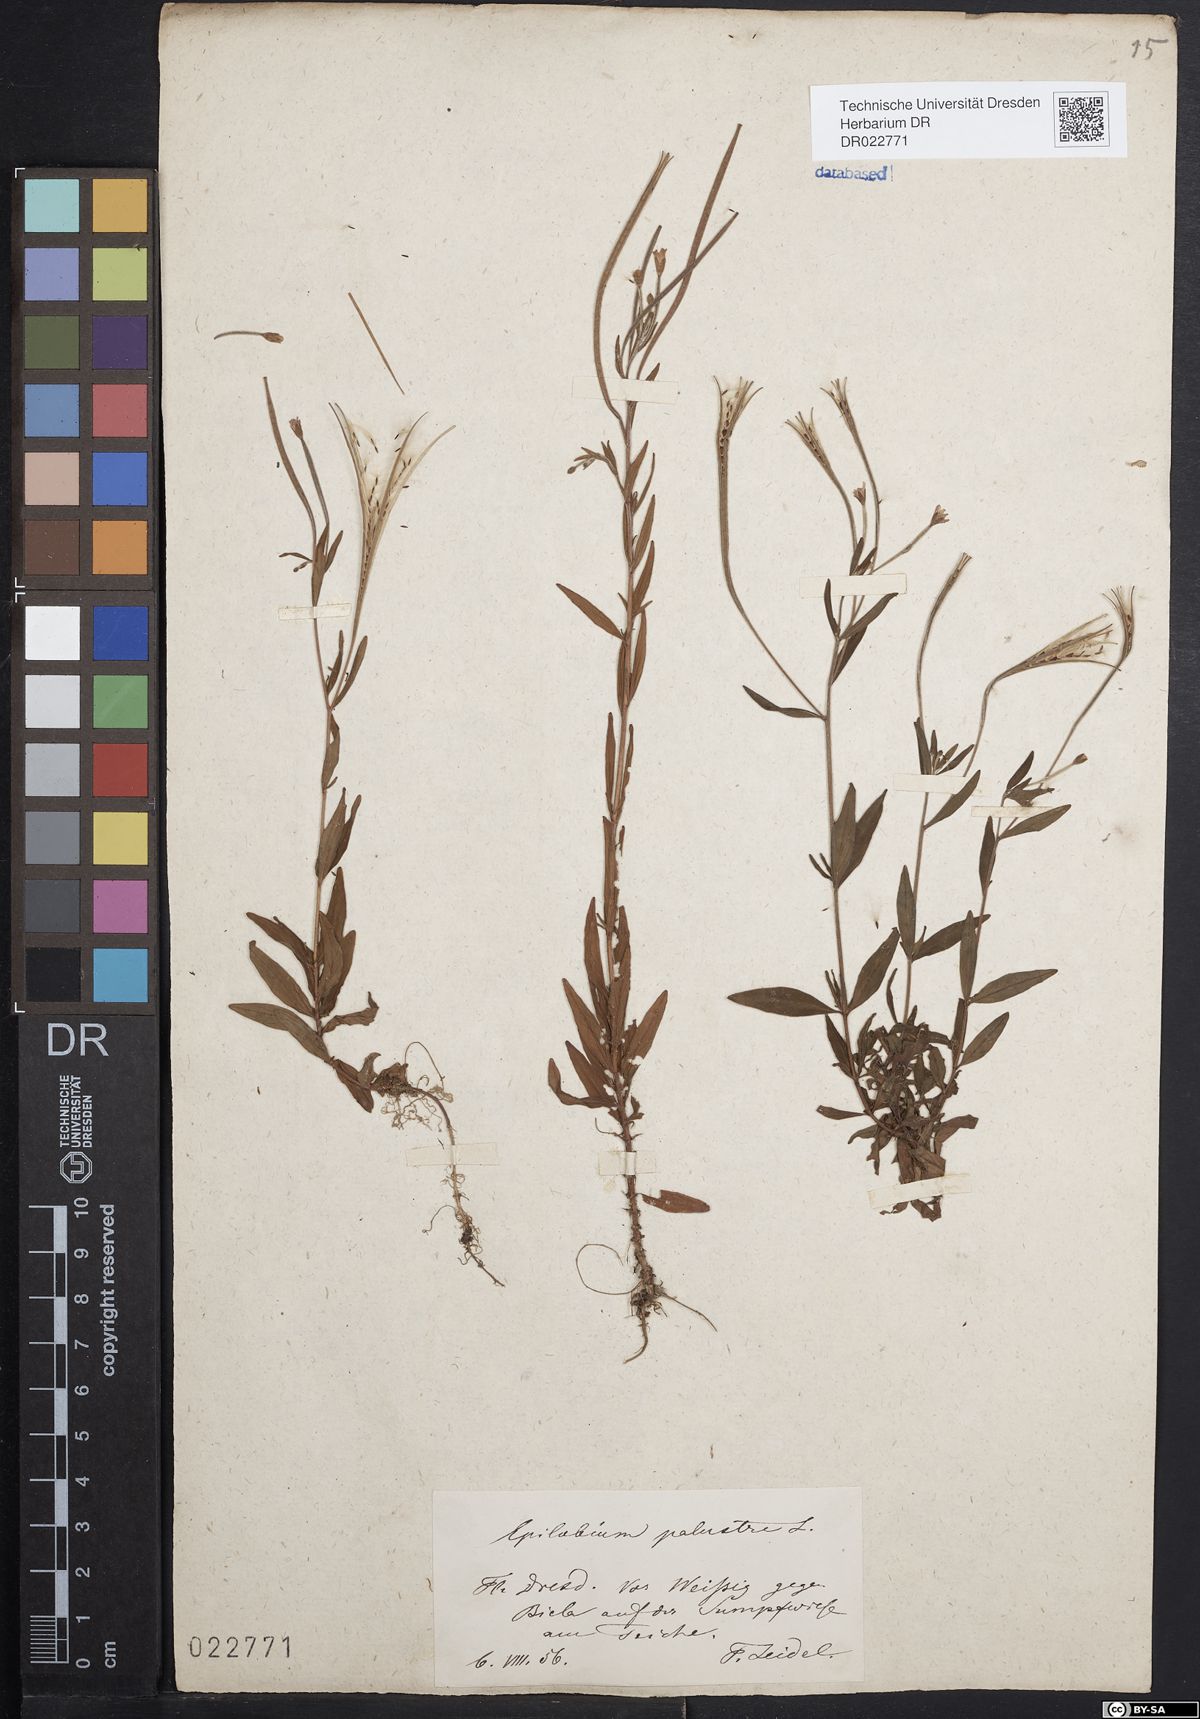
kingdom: Plantae
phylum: Tracheophyta
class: Magnoliopsida
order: Myrtales
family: Onagraceae
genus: Epilobium
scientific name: Epilobium palustre
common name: Marsh willowherb
